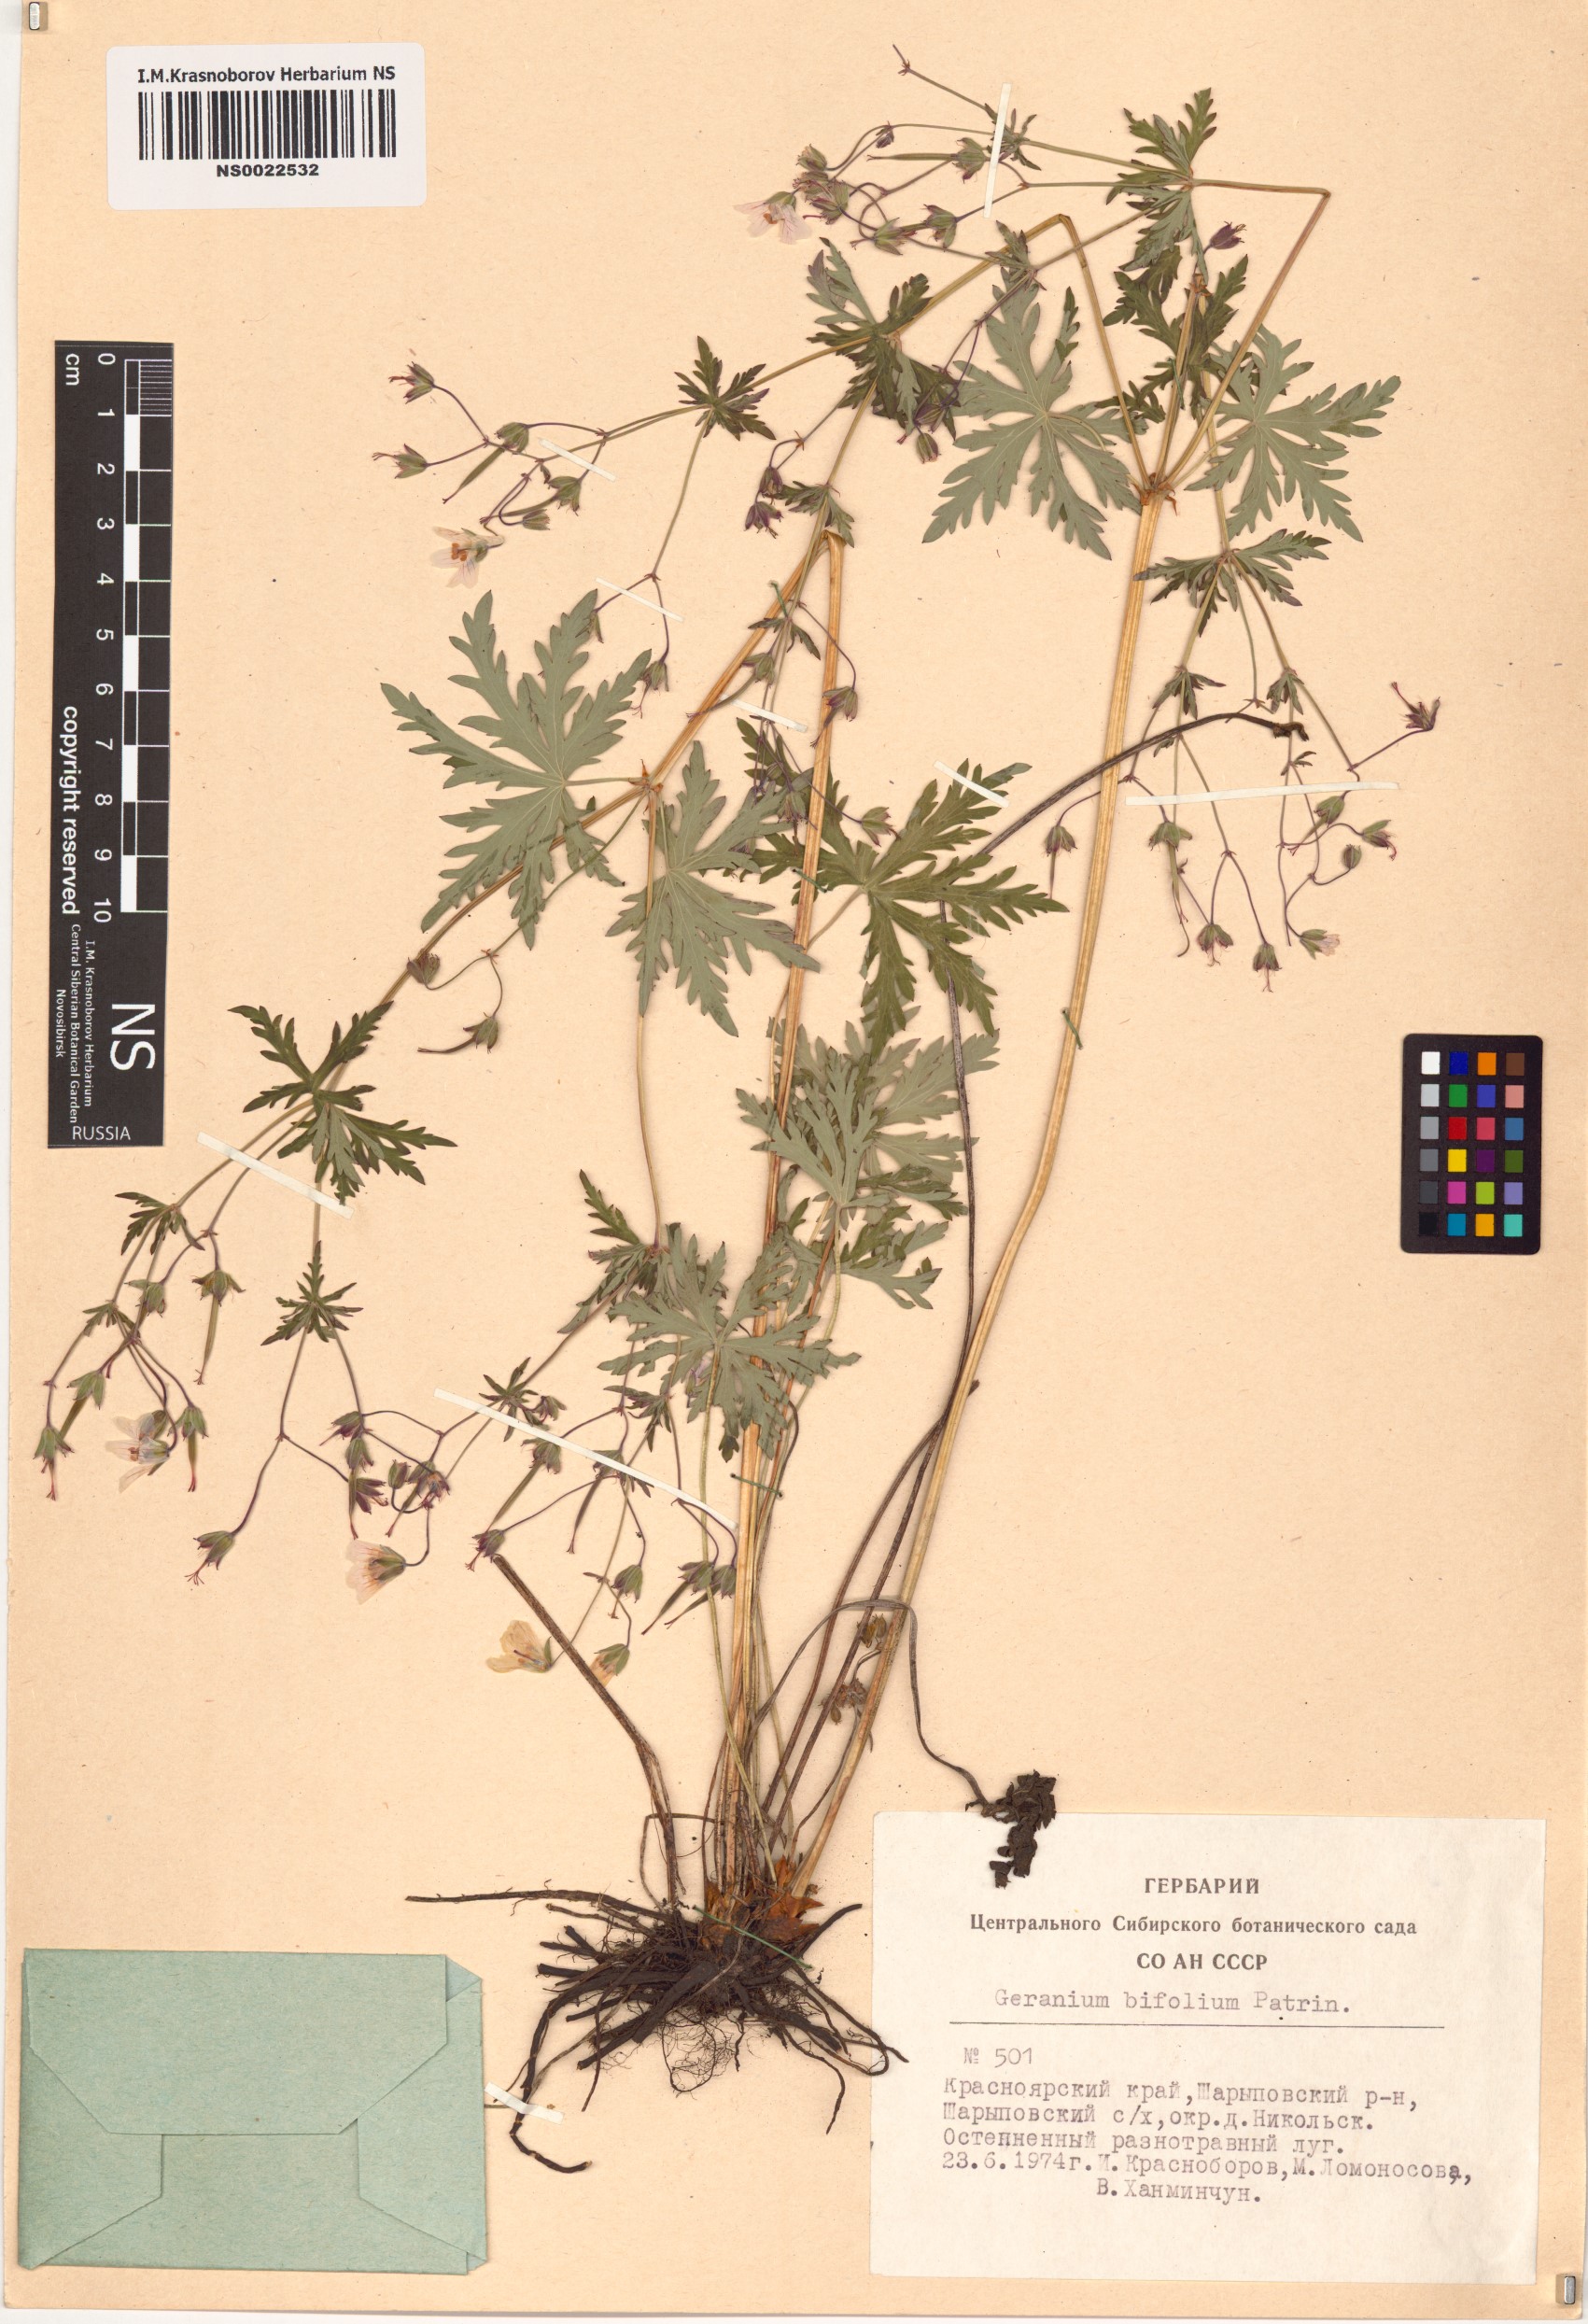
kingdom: Plantae
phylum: Tracheophyta
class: Magnoliopsida
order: Geraniales
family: Geraniaceae
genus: Geranium
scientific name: Geranium pseudosibiricum
